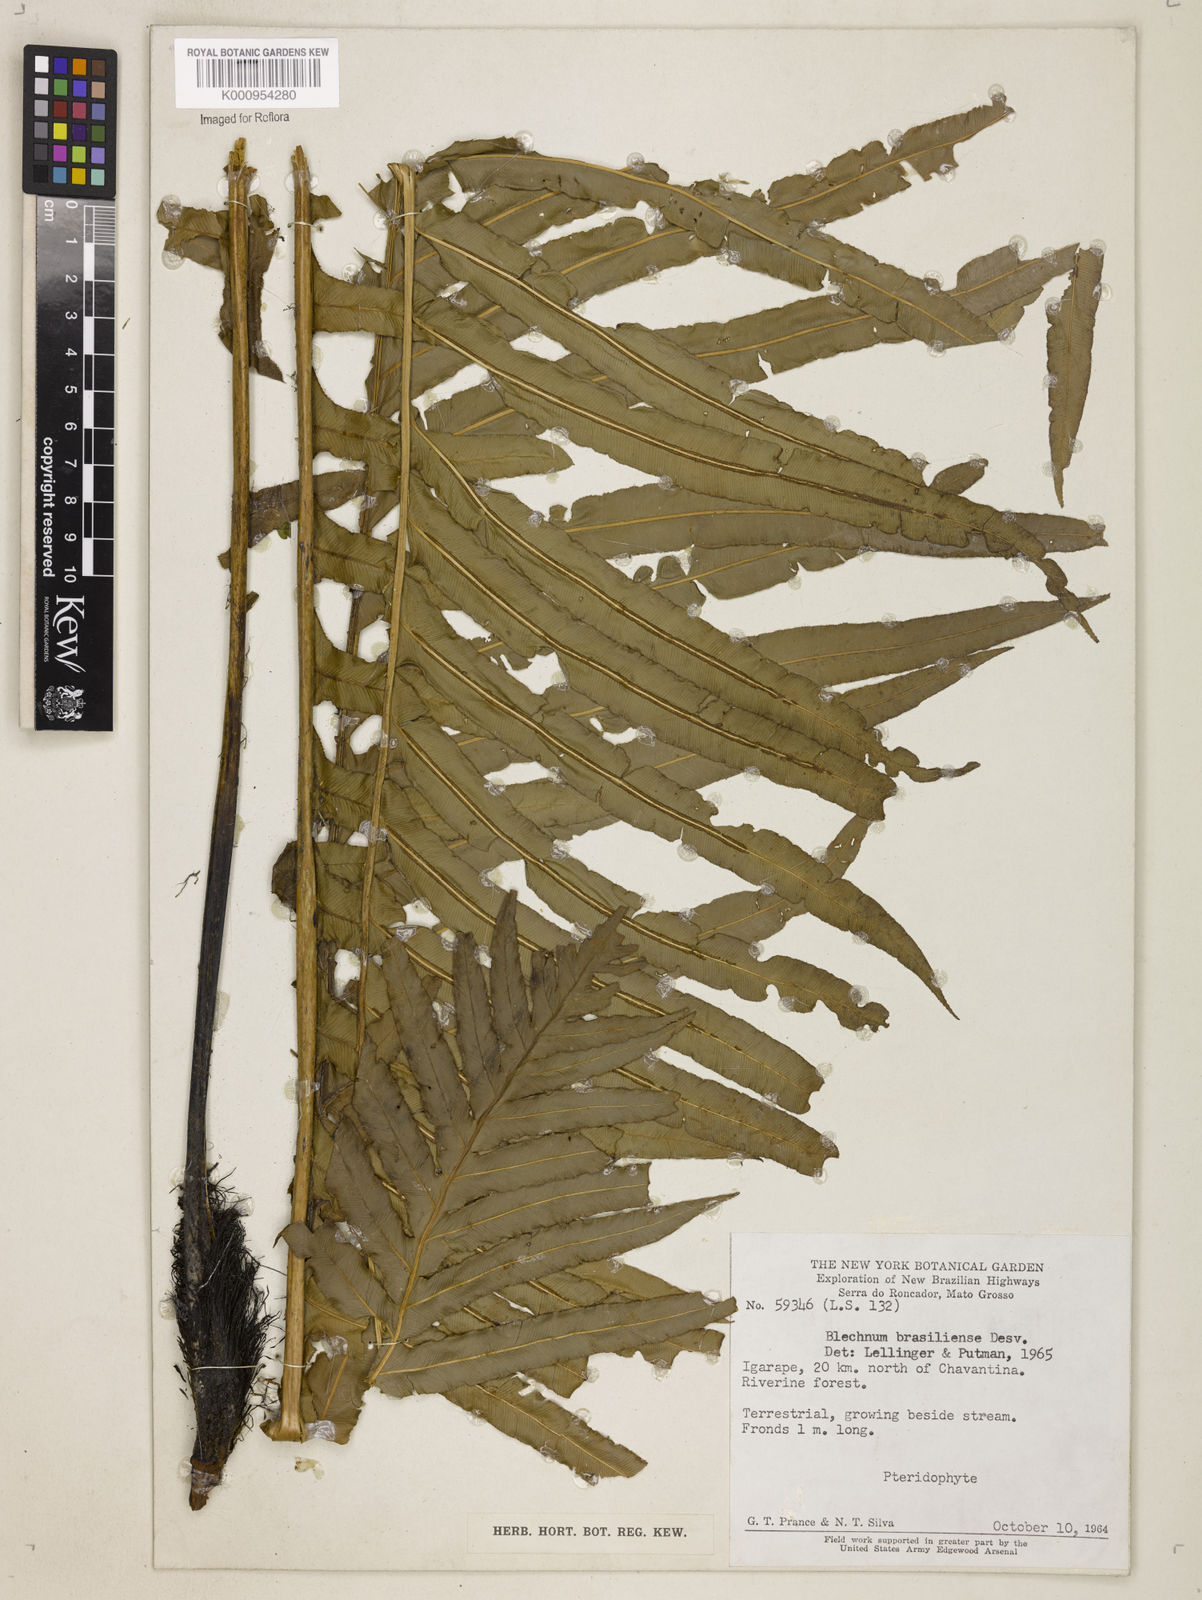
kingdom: Plantae
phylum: Tracheophyta
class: Polypodiopsida
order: Polypodiales
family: Blechnaceae
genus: Neoblechnum
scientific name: Neoblechnum brasiliense
